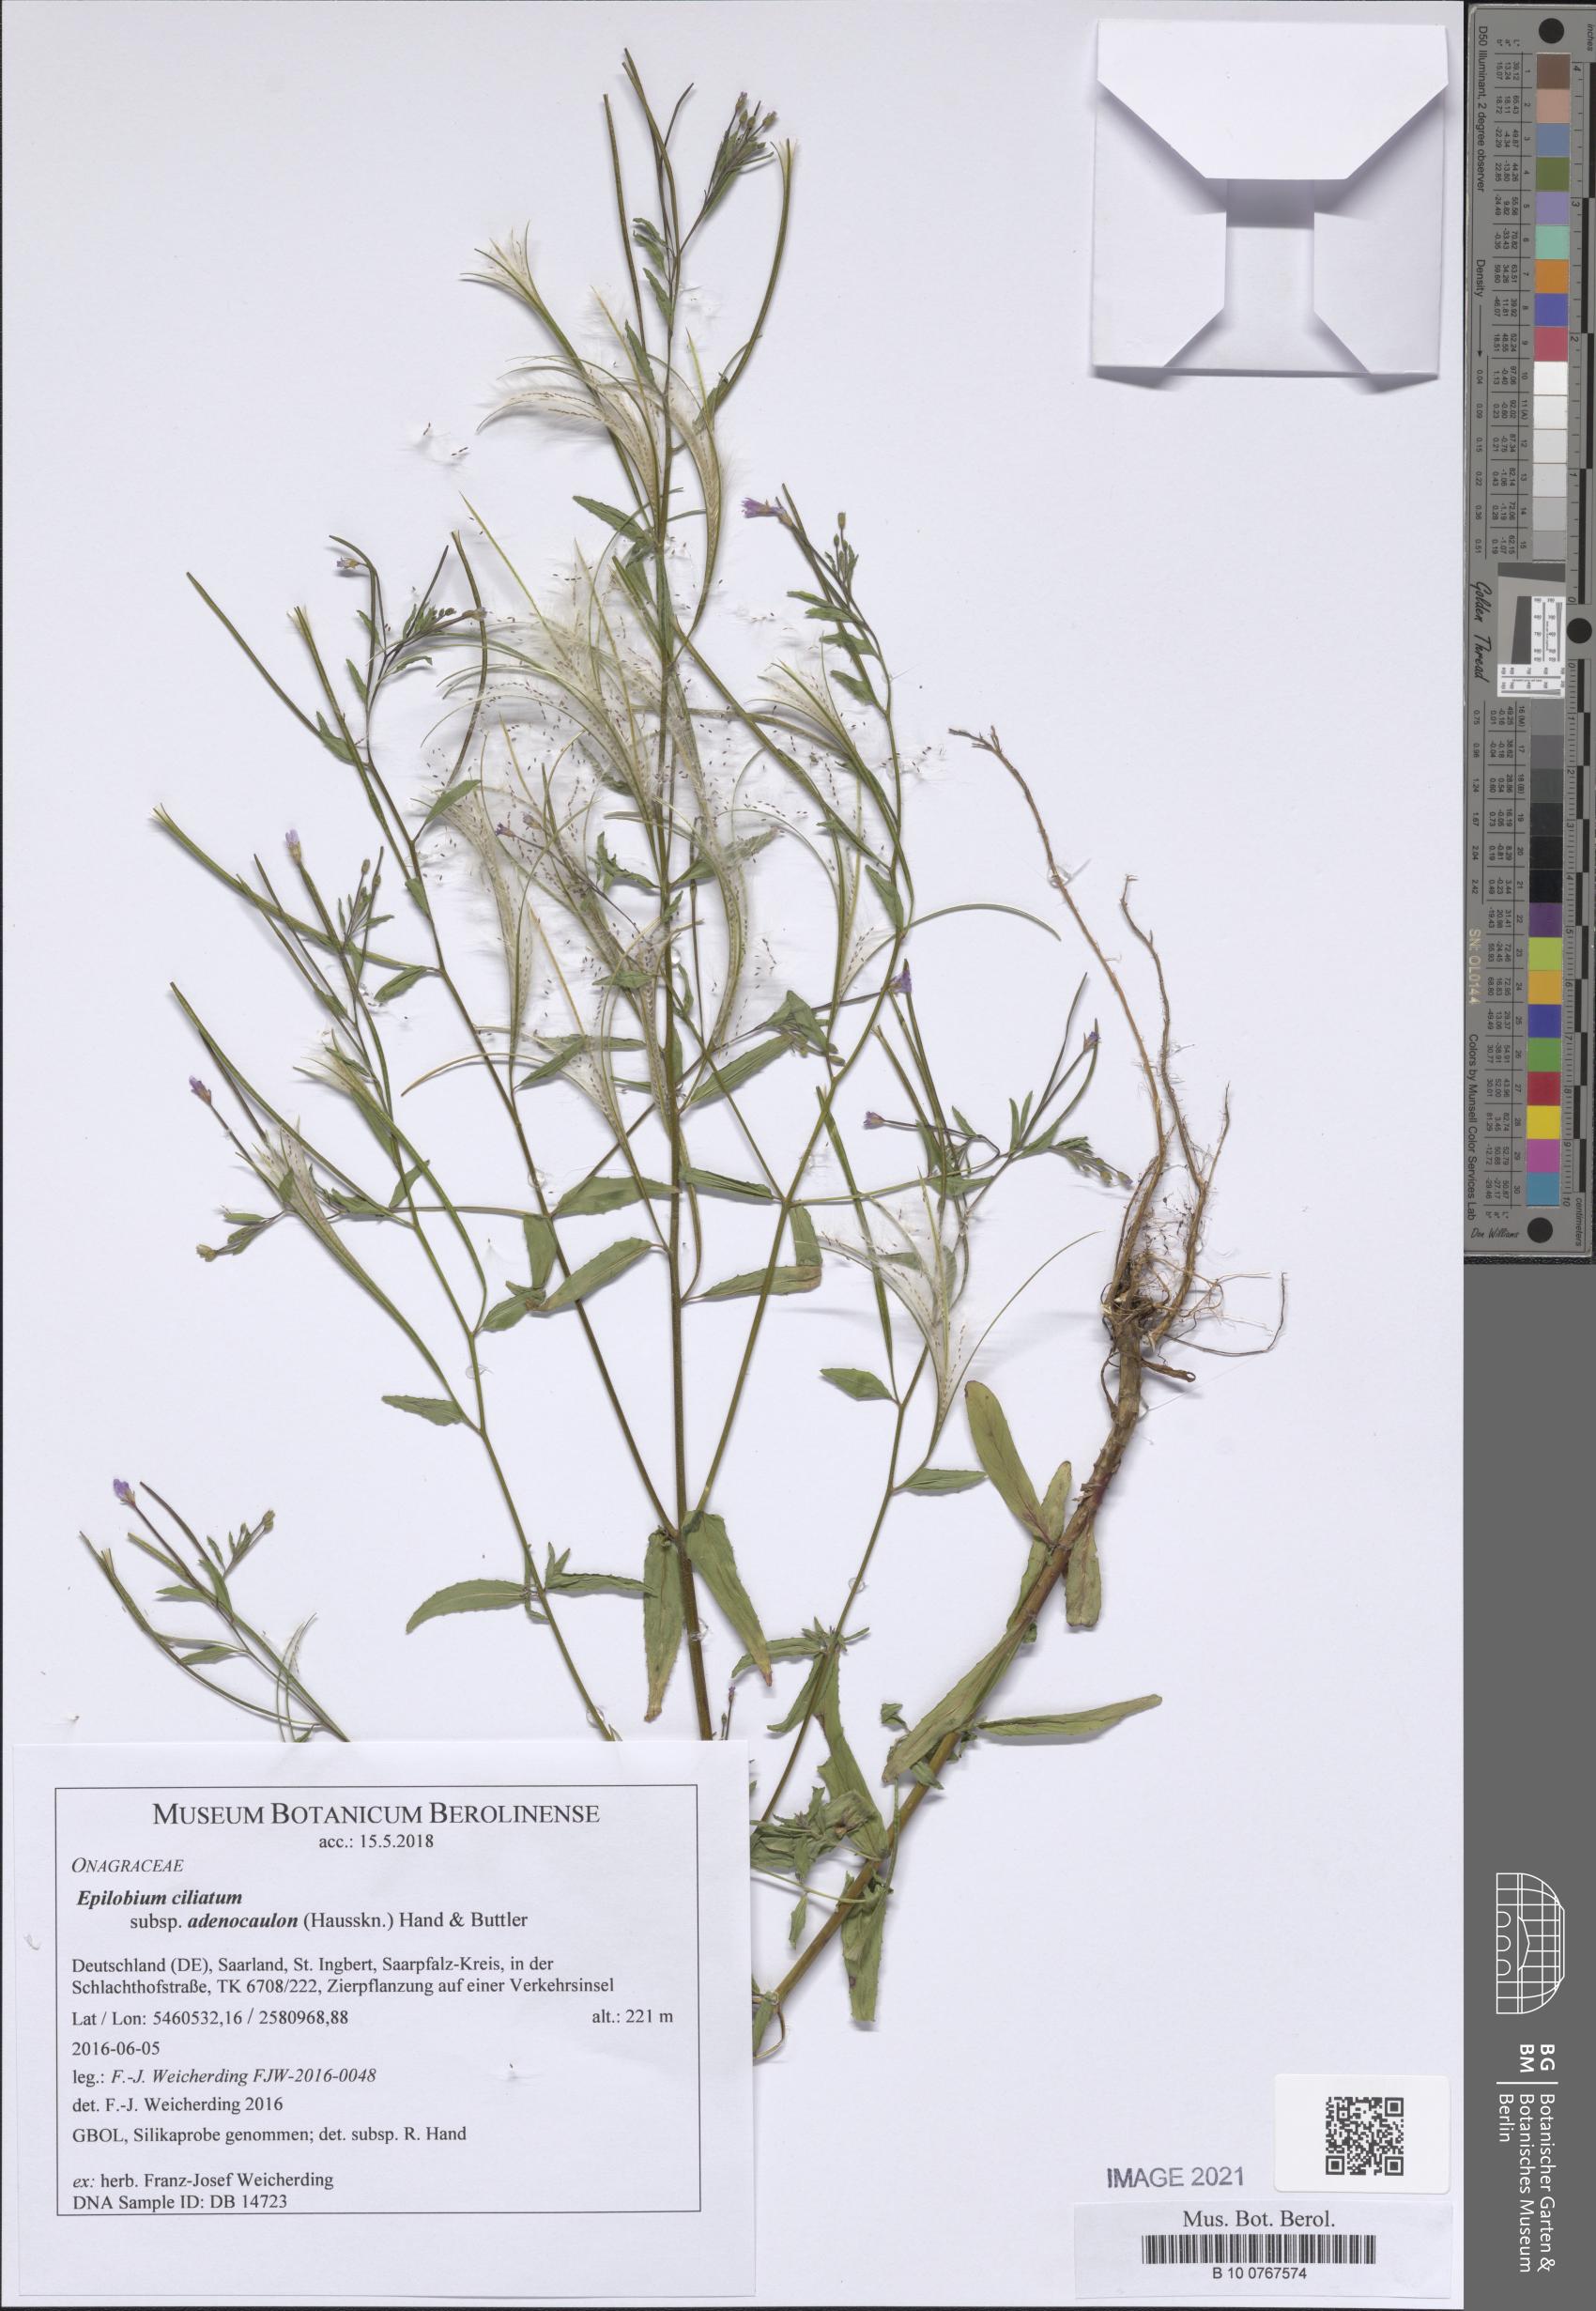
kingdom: Plantae
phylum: Tracheophyta
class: Magnoliopsida
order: Myrtales
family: Onagraceae
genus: Epilobium
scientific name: Epilobium ciliatum
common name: American willowherb
